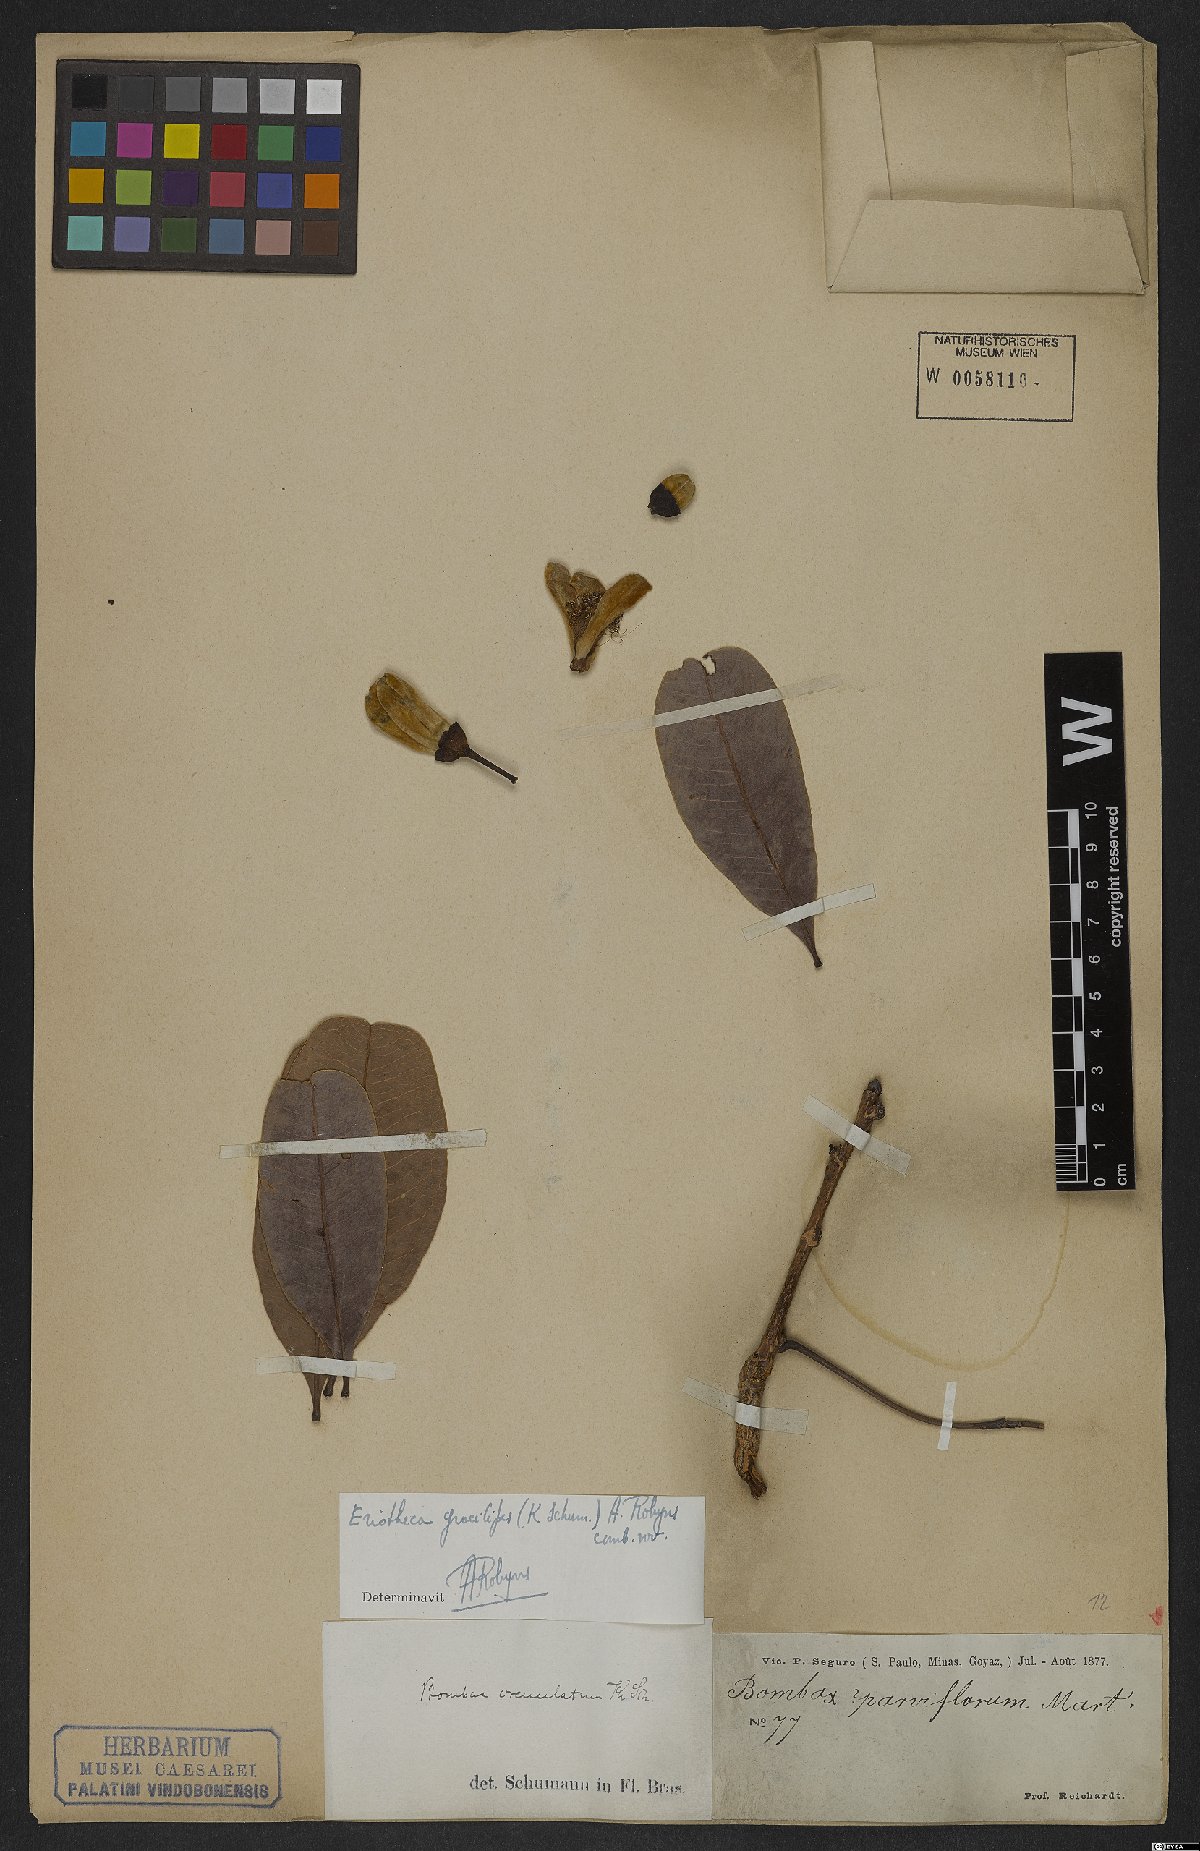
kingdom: Plantae
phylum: Tracheophyta
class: Magnoliopsida
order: Malvales
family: Malvaceae
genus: Eriotheca
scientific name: Eriotheca gracilipes
